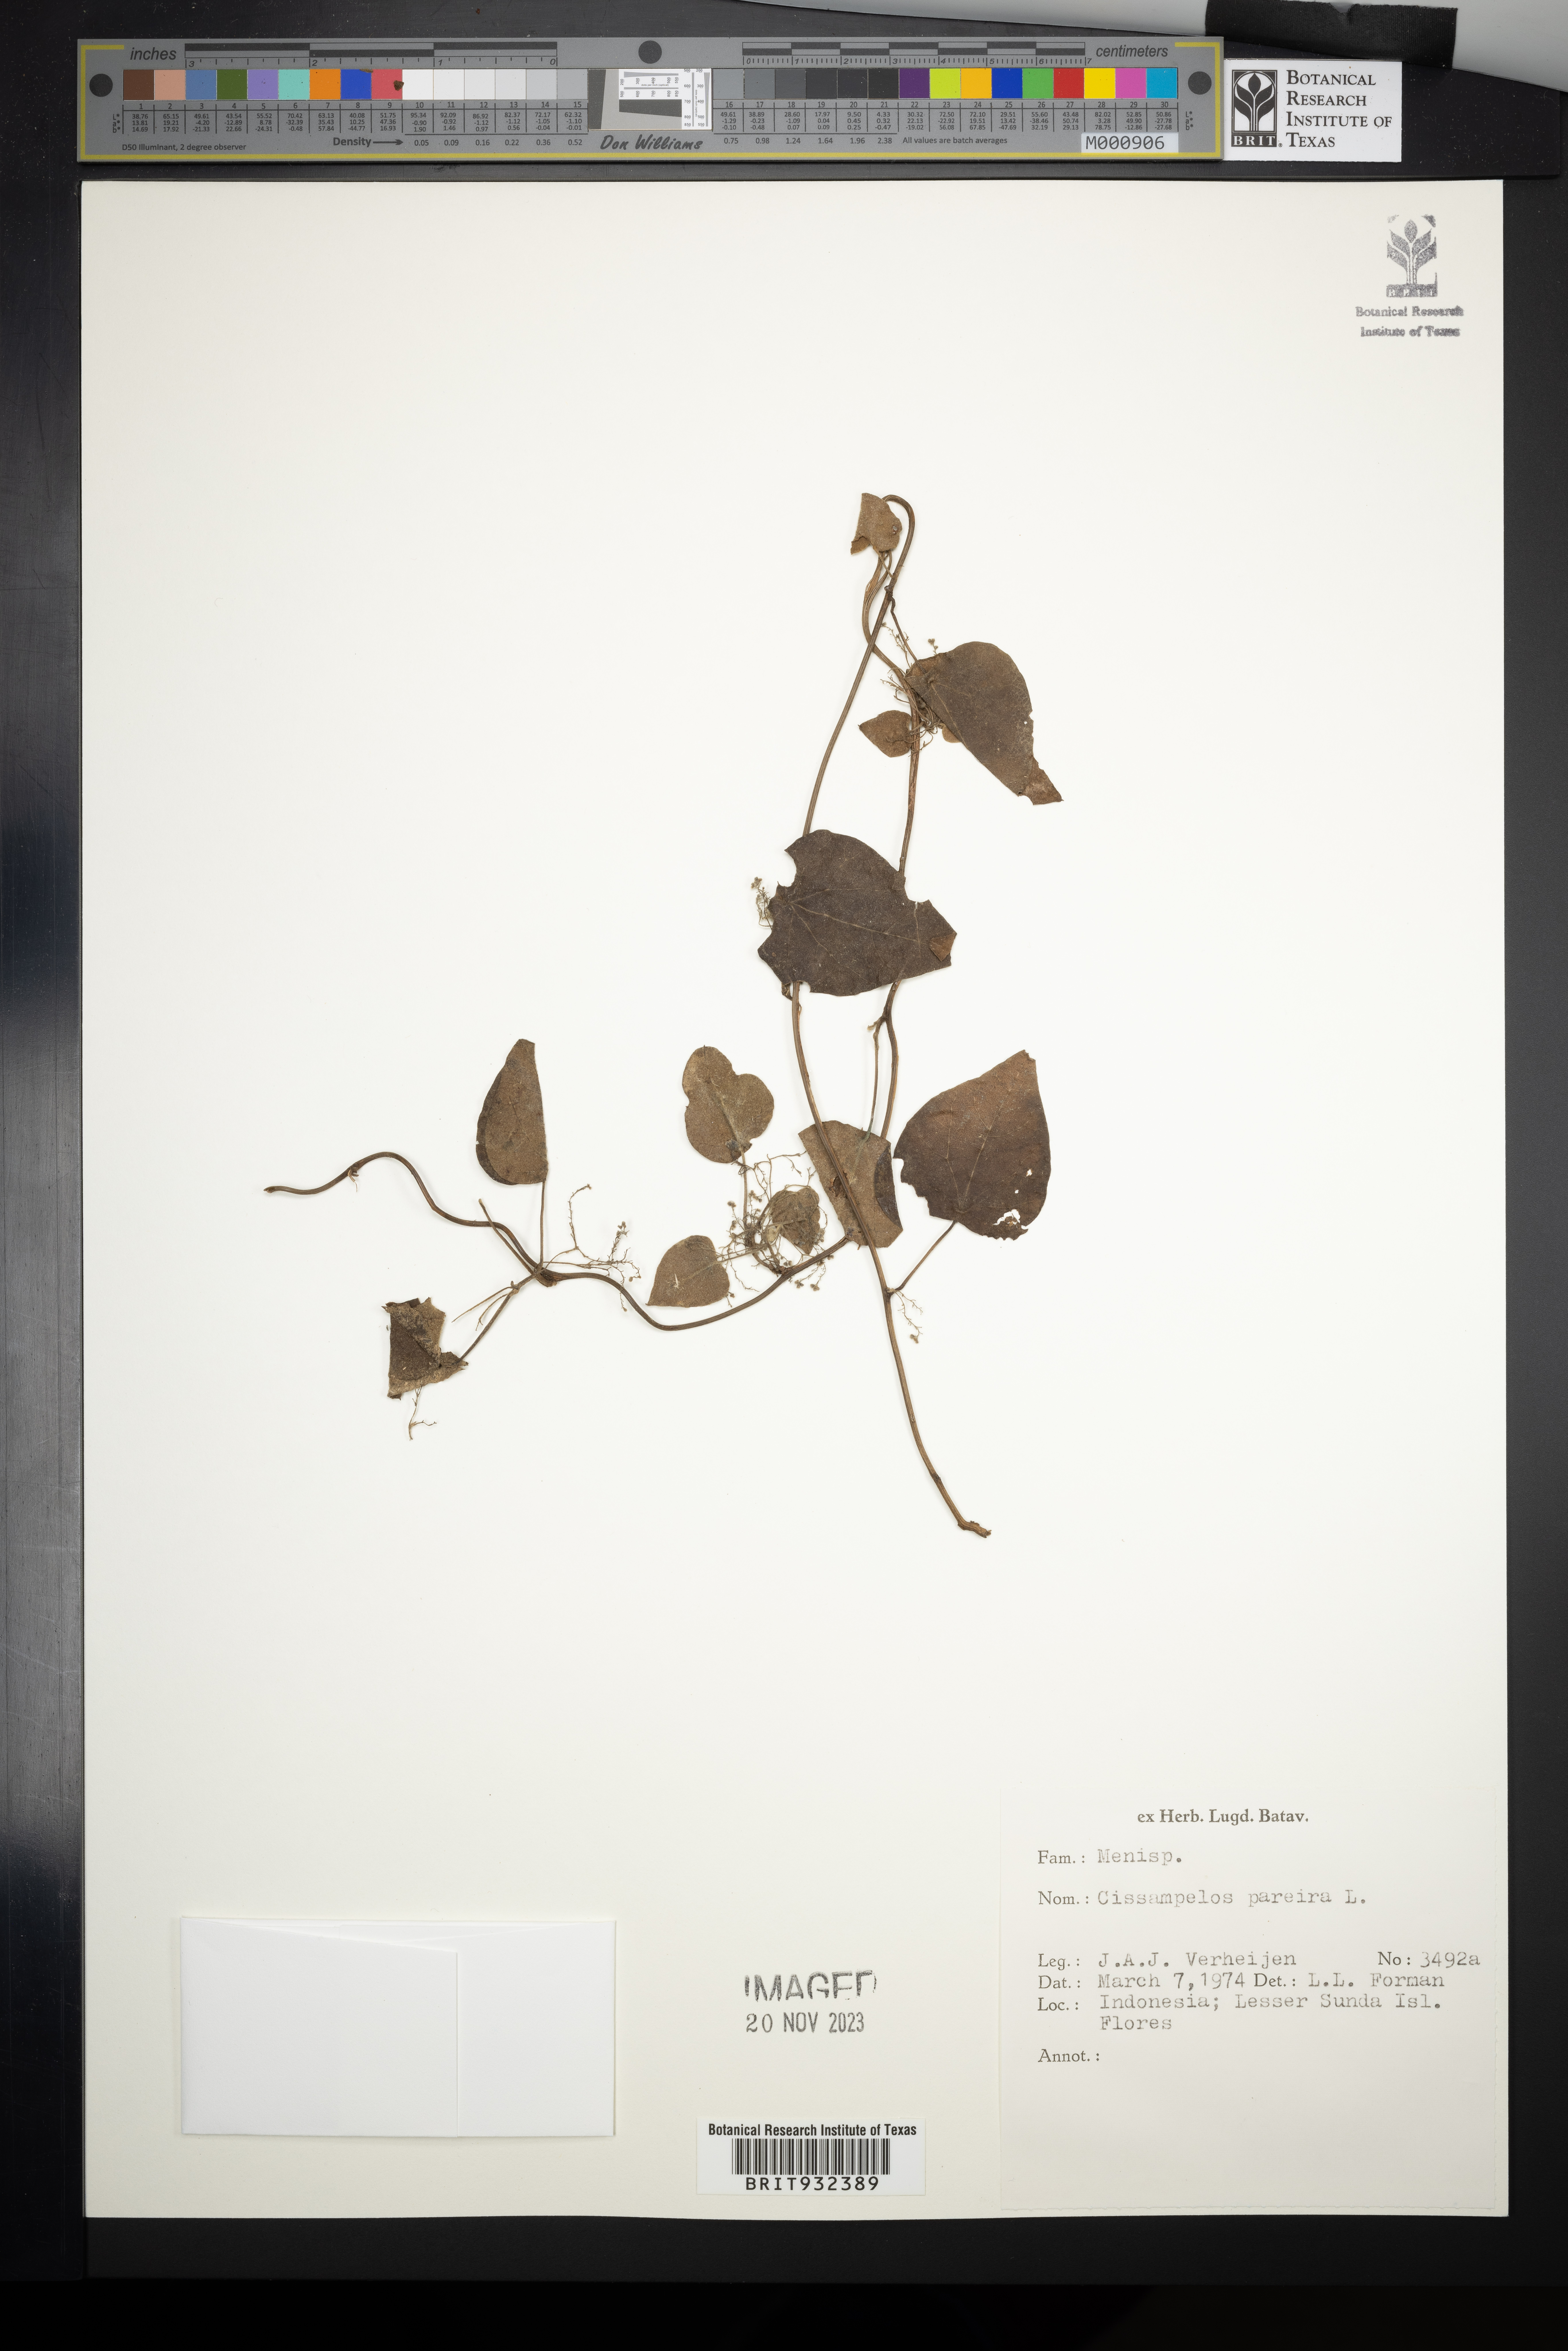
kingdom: Plantae
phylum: Tracheophyta
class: Magnoliopsida
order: Ranunculales
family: Menispermaceae
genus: Cissampelos
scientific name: Cissampelos
